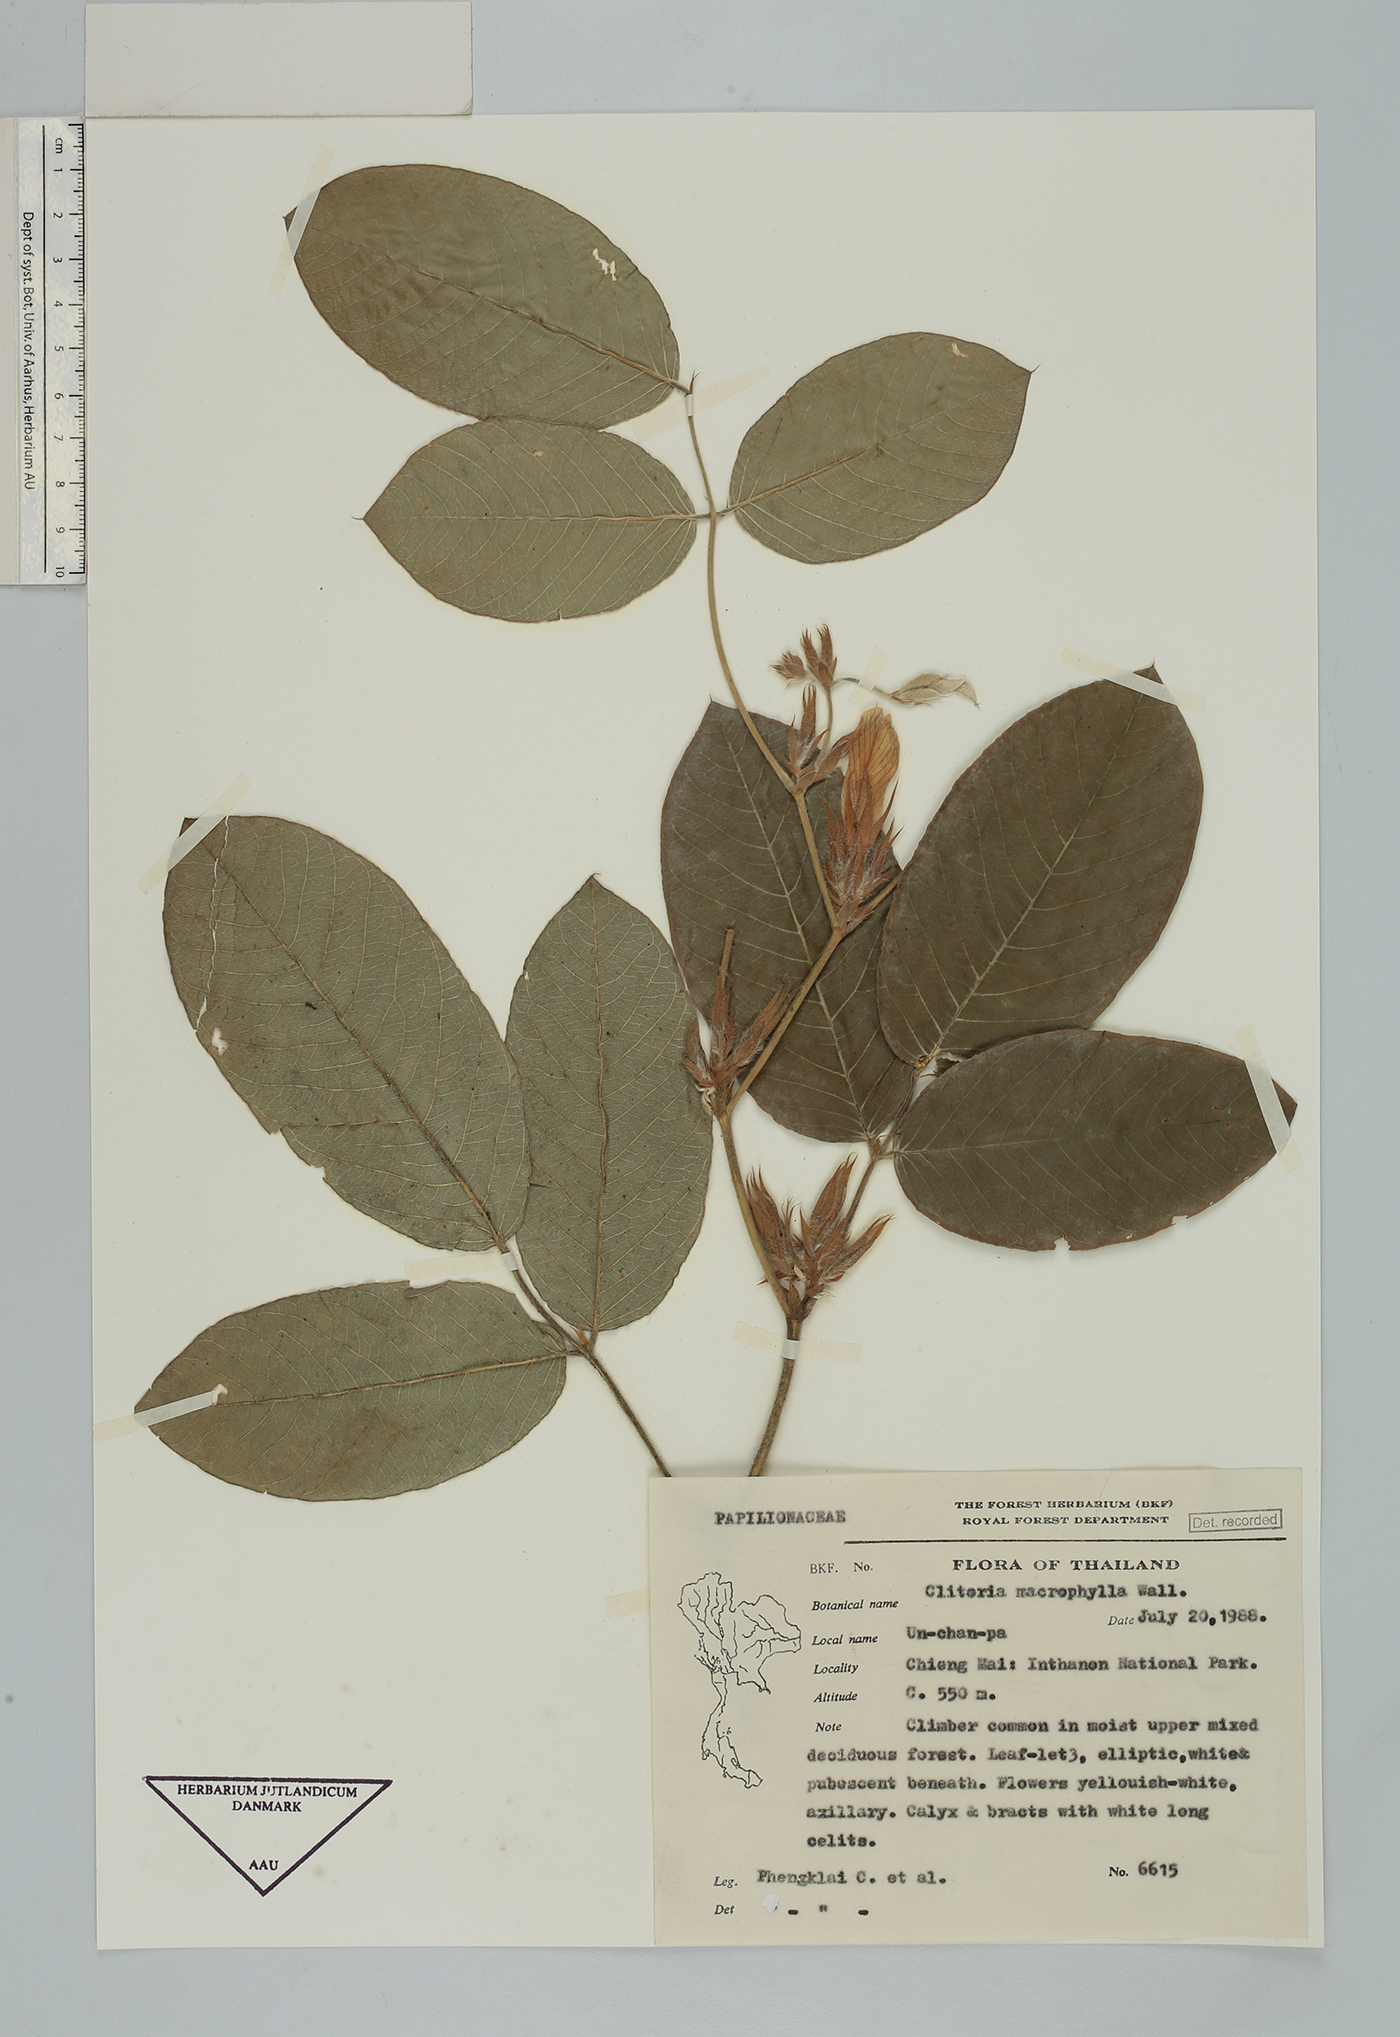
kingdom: Plantae
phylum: Tracheophyta
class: Magnoliopsida
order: Fabales
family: Fabaceae
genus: Clitoria
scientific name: Clitoria macrophylla
